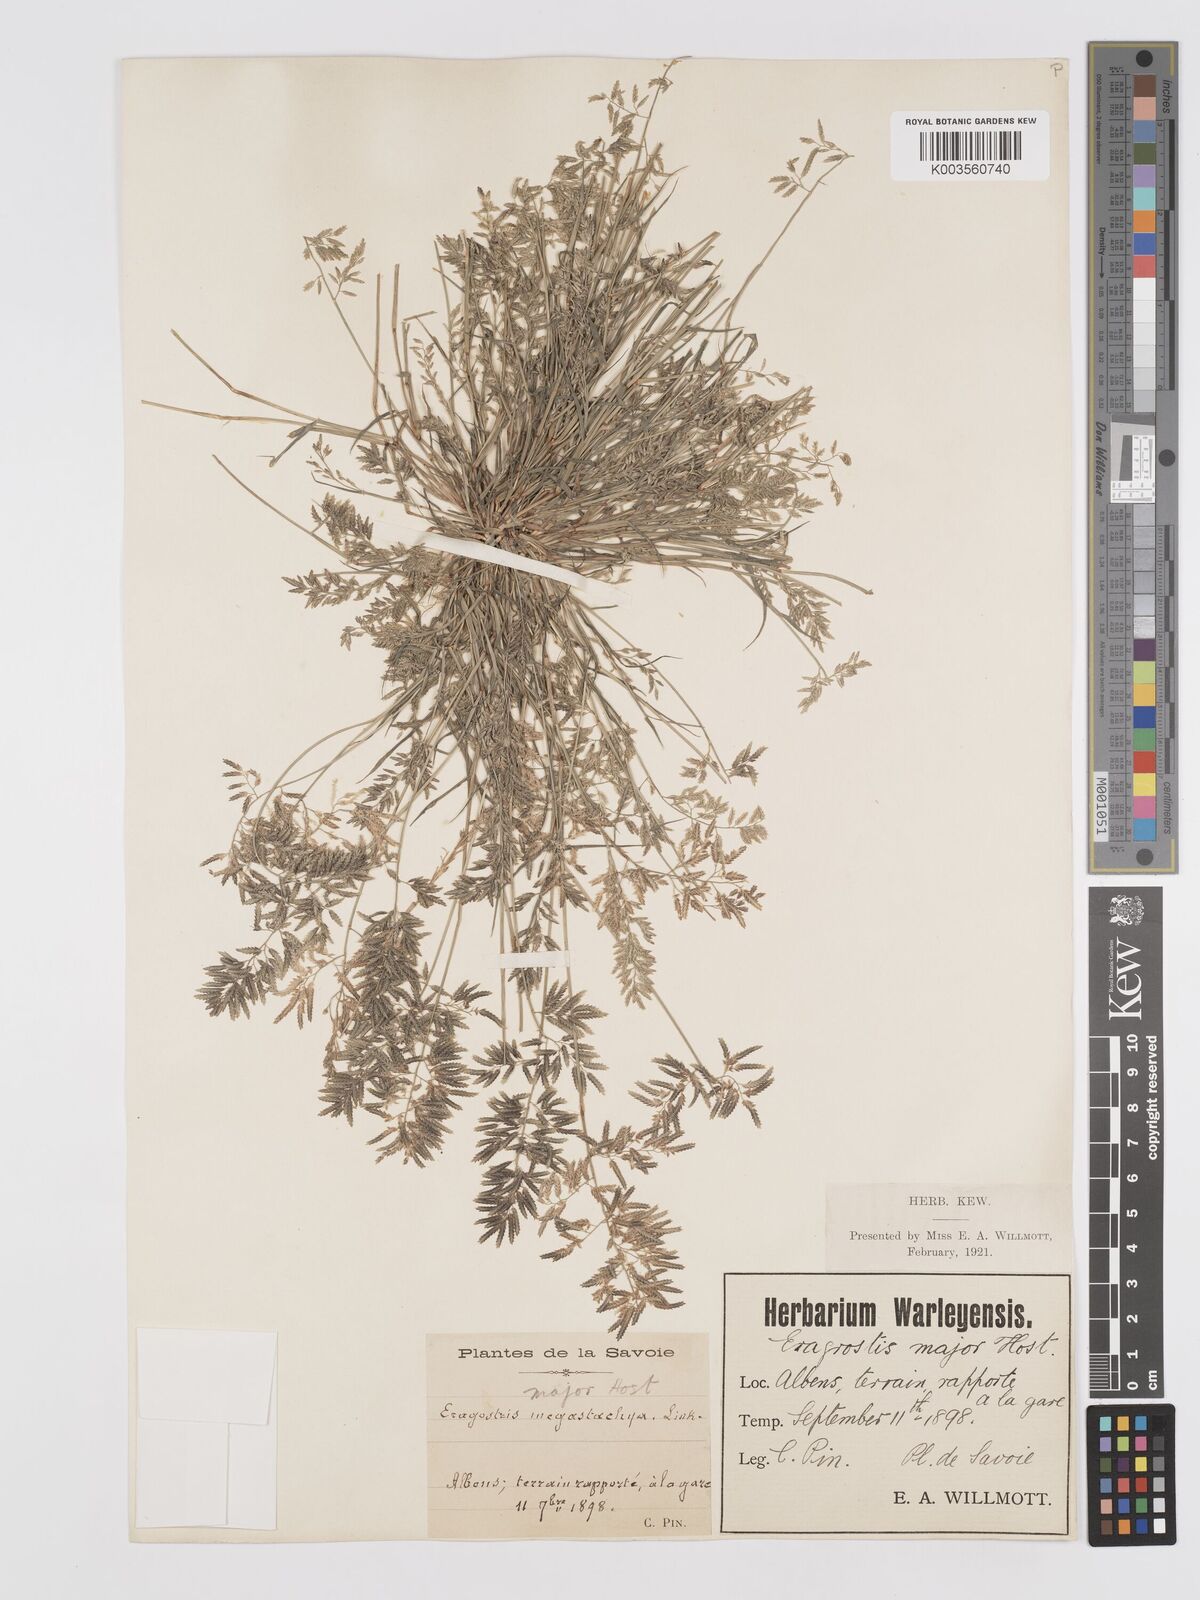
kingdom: Plantae
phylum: Tracheophyta
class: Liliopsida
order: Poales
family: Poaceae
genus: Eragrostis
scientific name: Eragrostis minor
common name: Small love-grass
